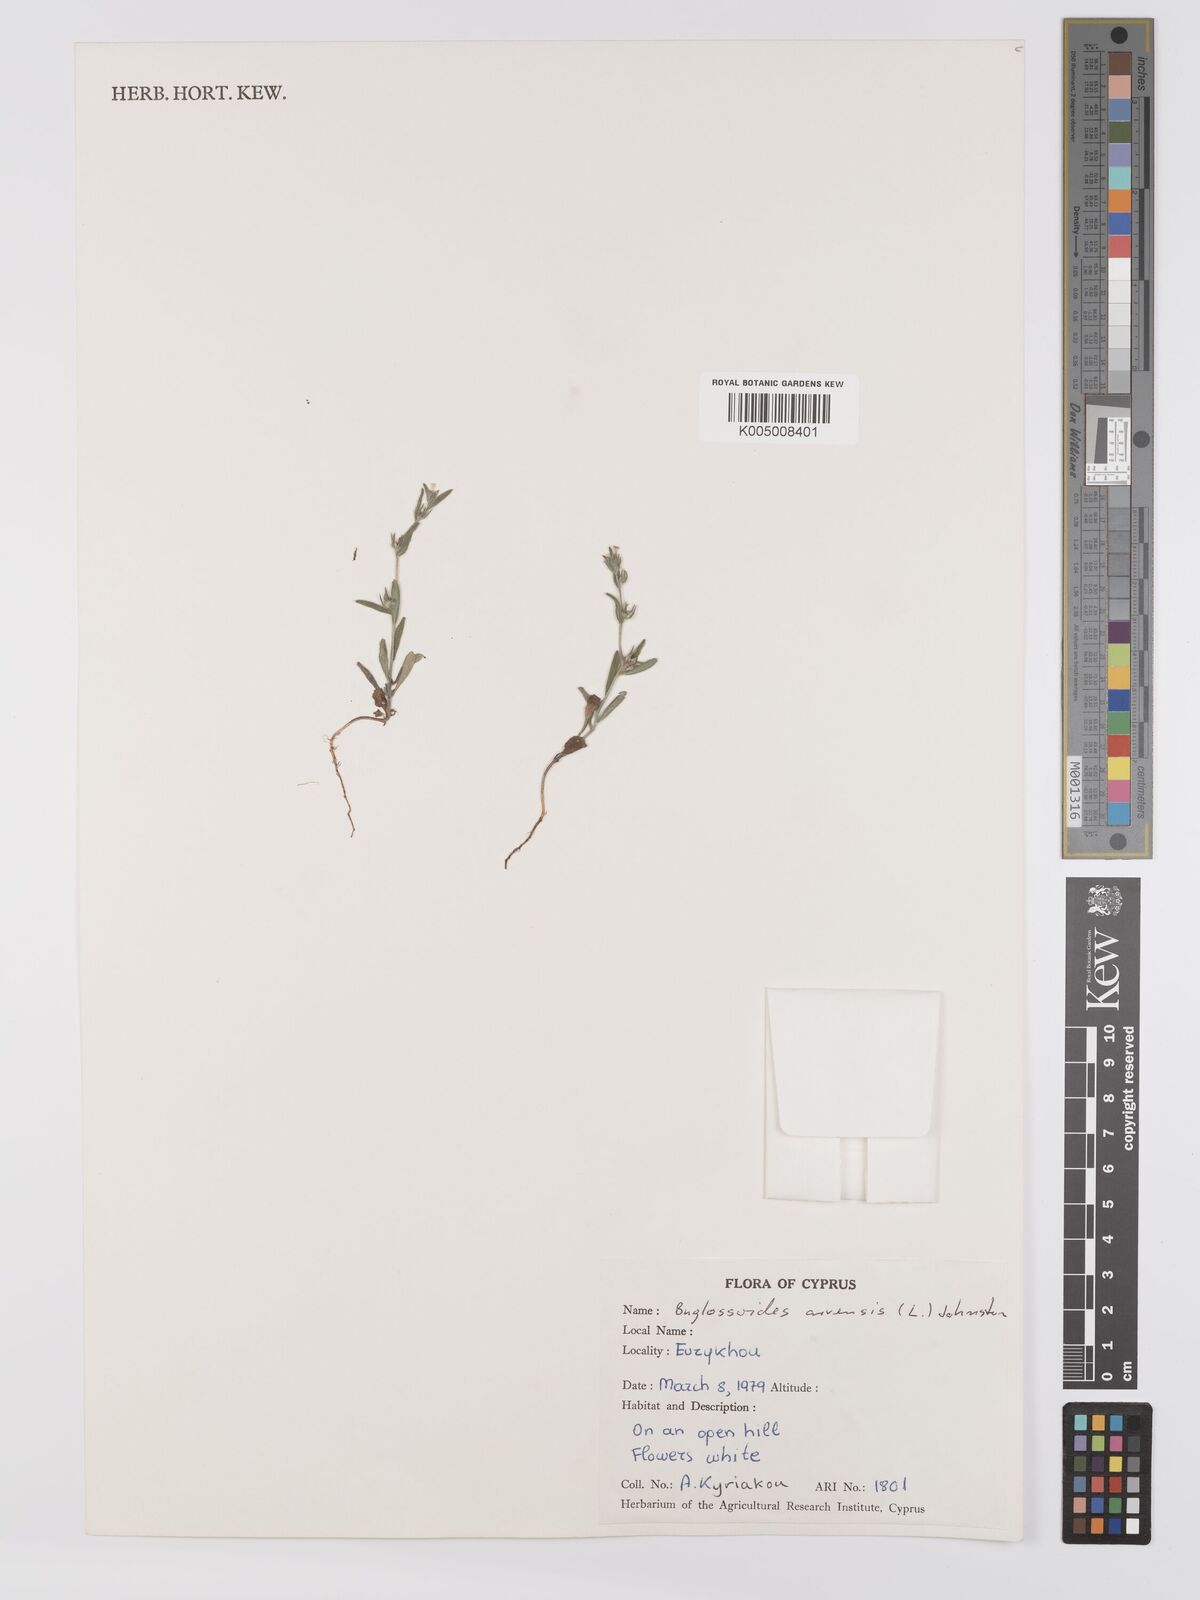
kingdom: Plantae
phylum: Tracheophyta
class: Magnoliopsida
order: Boraginales
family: Boraginaceae
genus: Buglossoides
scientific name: Buglossoides arvensis
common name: Corn gromwell
